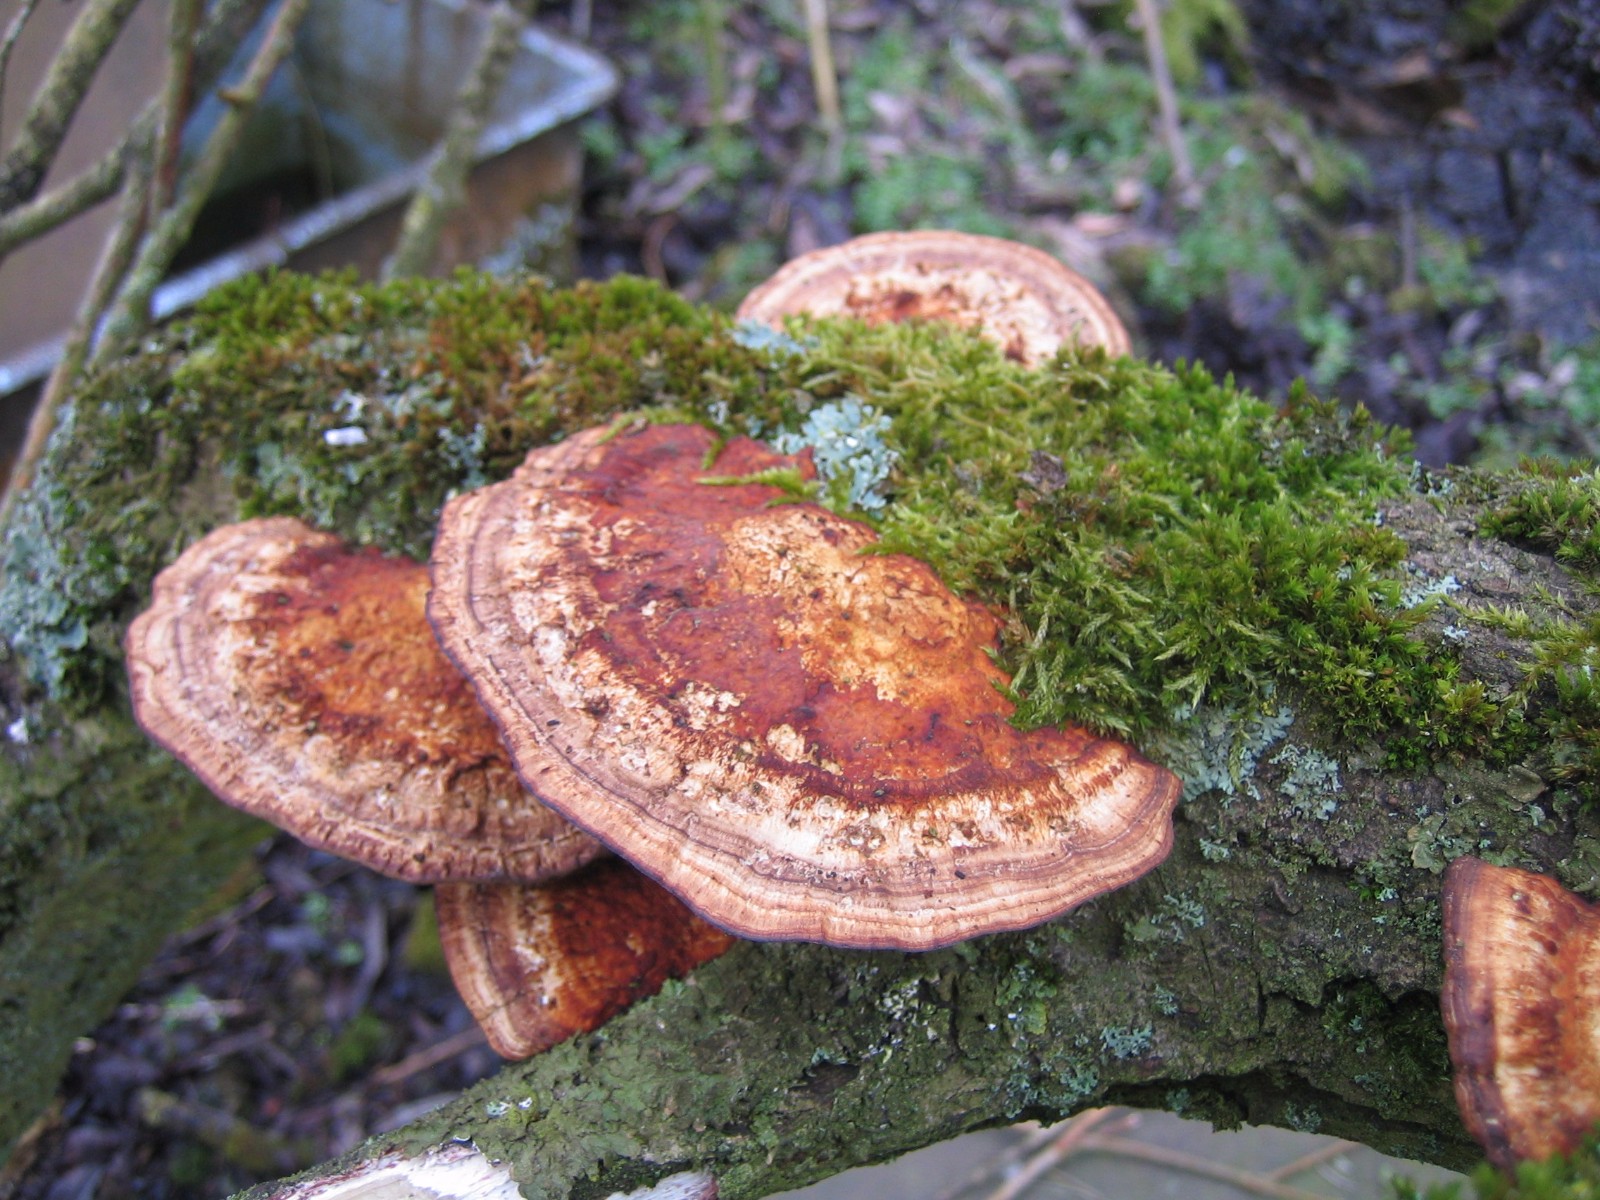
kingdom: Fungi
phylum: Basidiomycota
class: Agaricomycetes
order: Polyporales
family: Polyporaceae
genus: Daedaleopsis
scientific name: Daedaleopsis confragosa
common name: rødmende læderporesvamp
